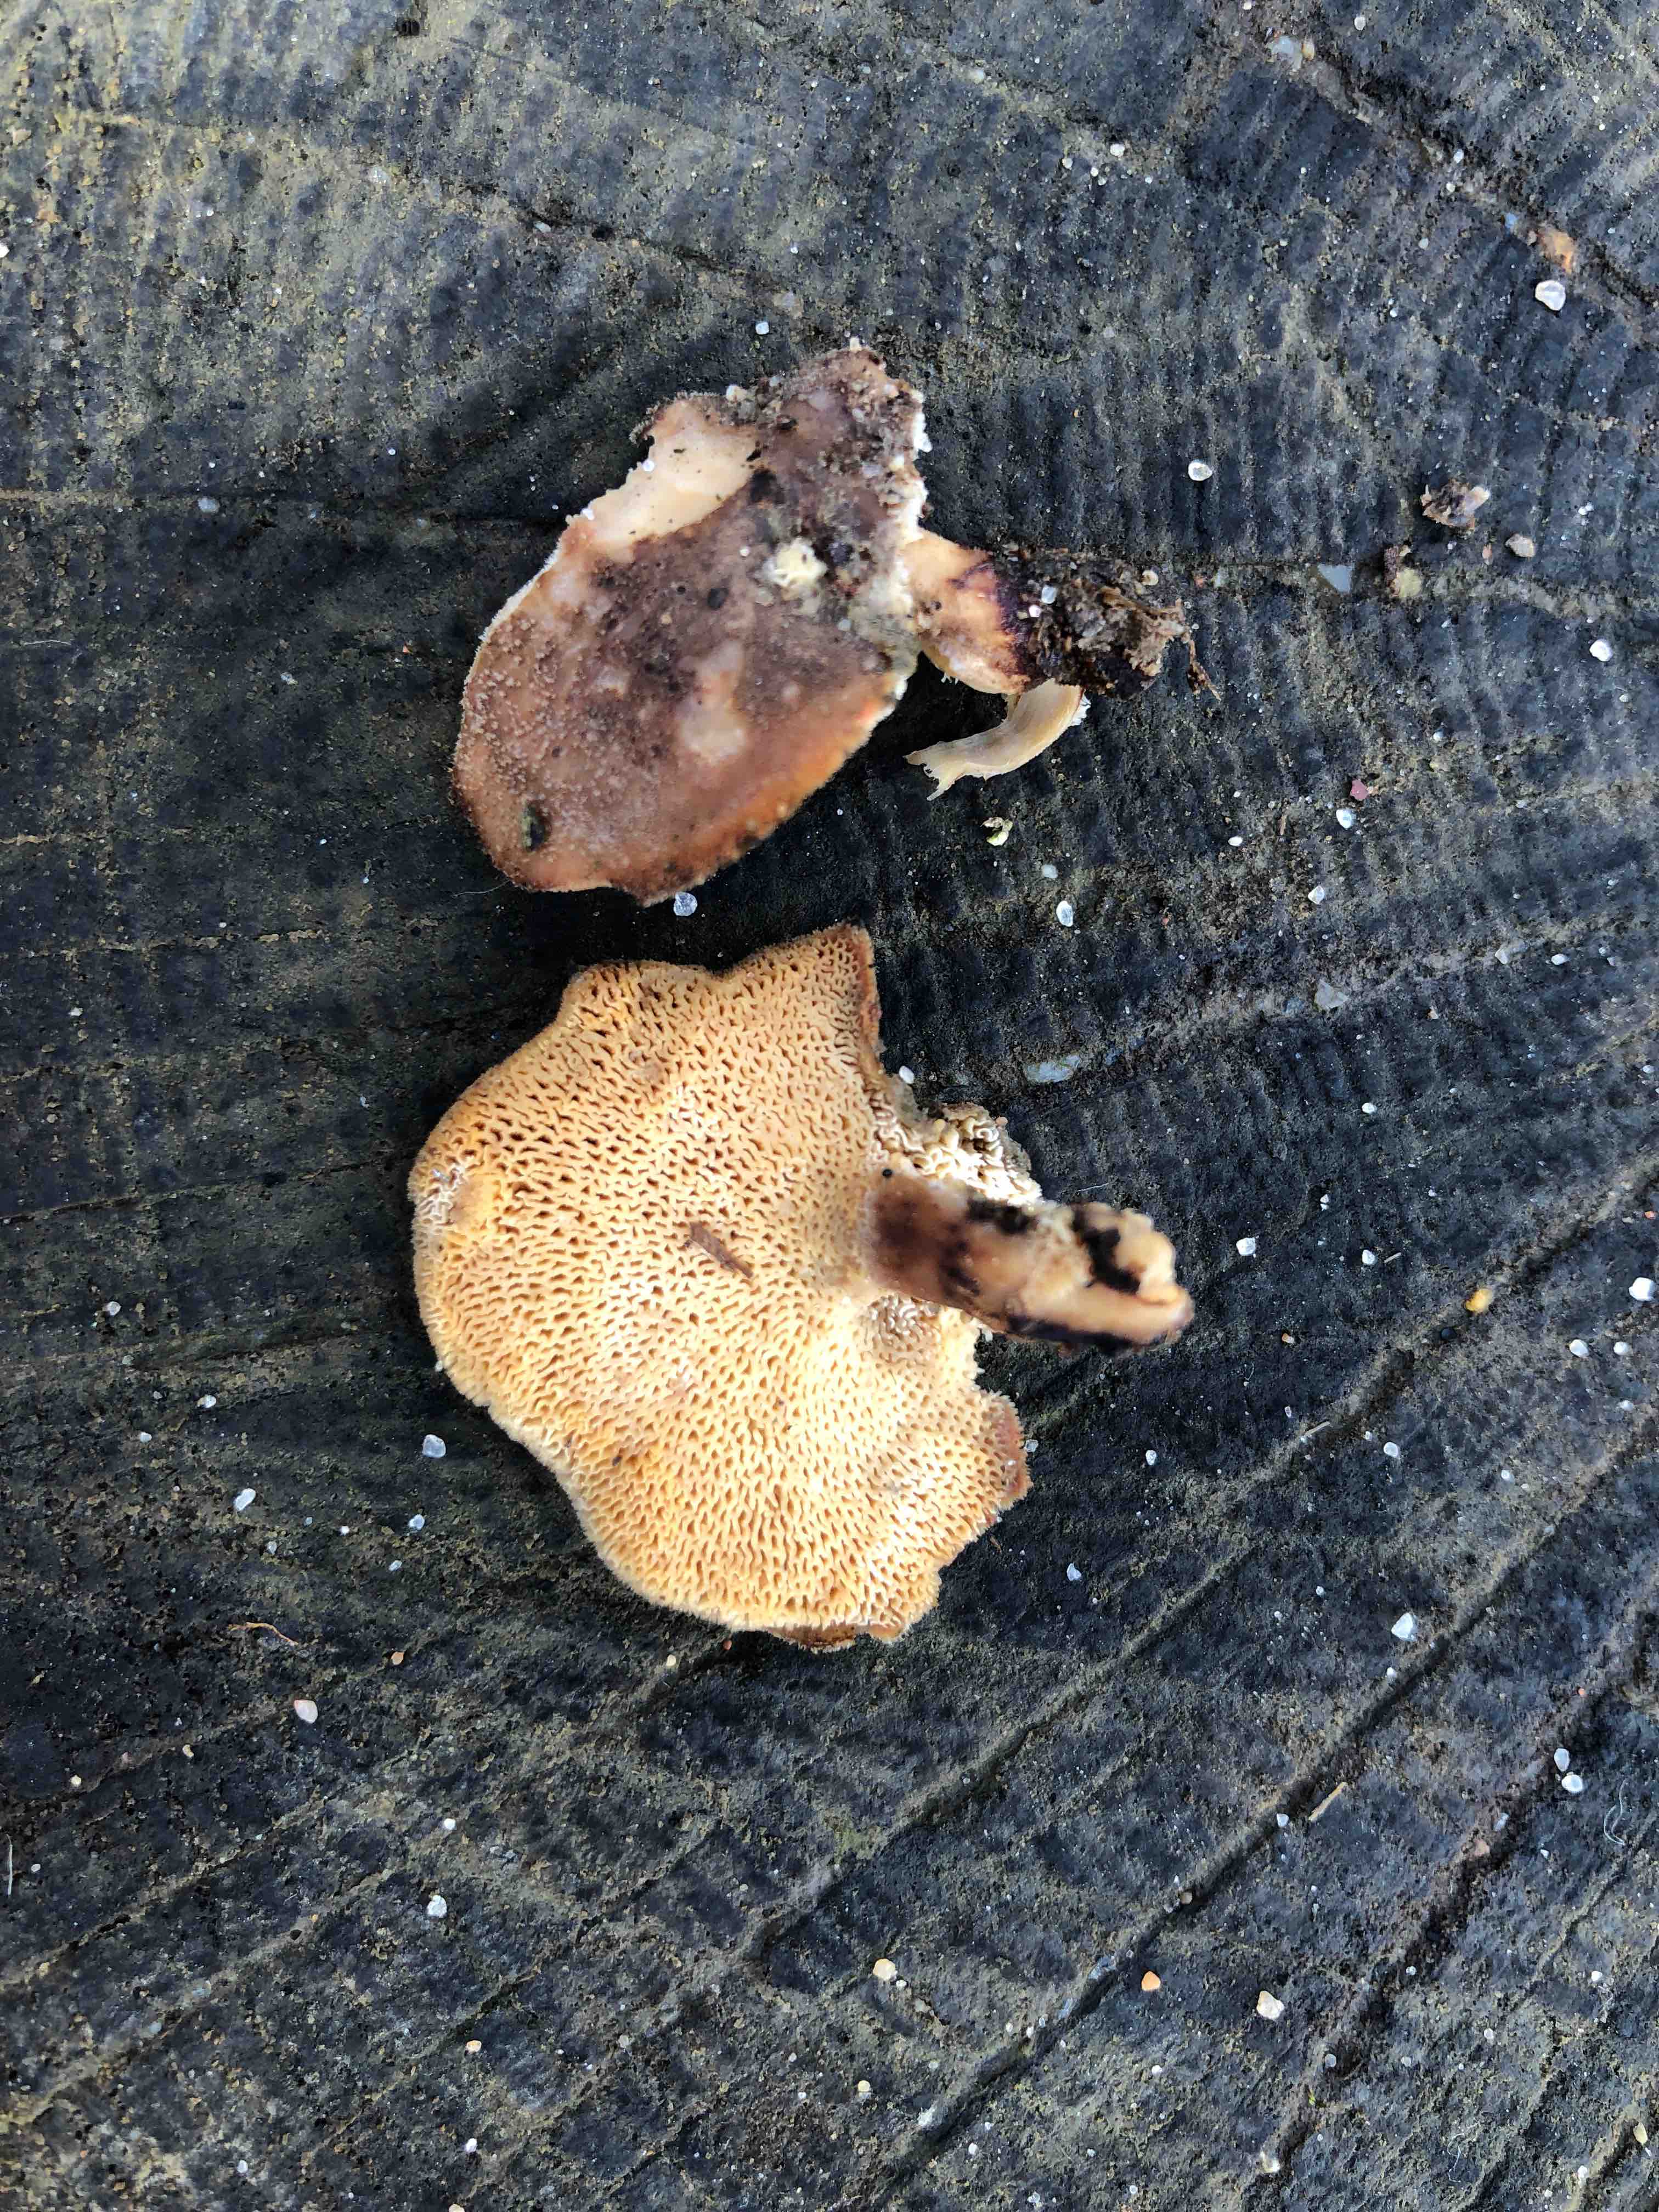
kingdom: Fungi
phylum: Basidiomycota
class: Agaricomycetes
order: Polyporales
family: Polyporaceae
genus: Lentinus
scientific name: Lentinus brumalis
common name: vinter-stilkporesvamp
